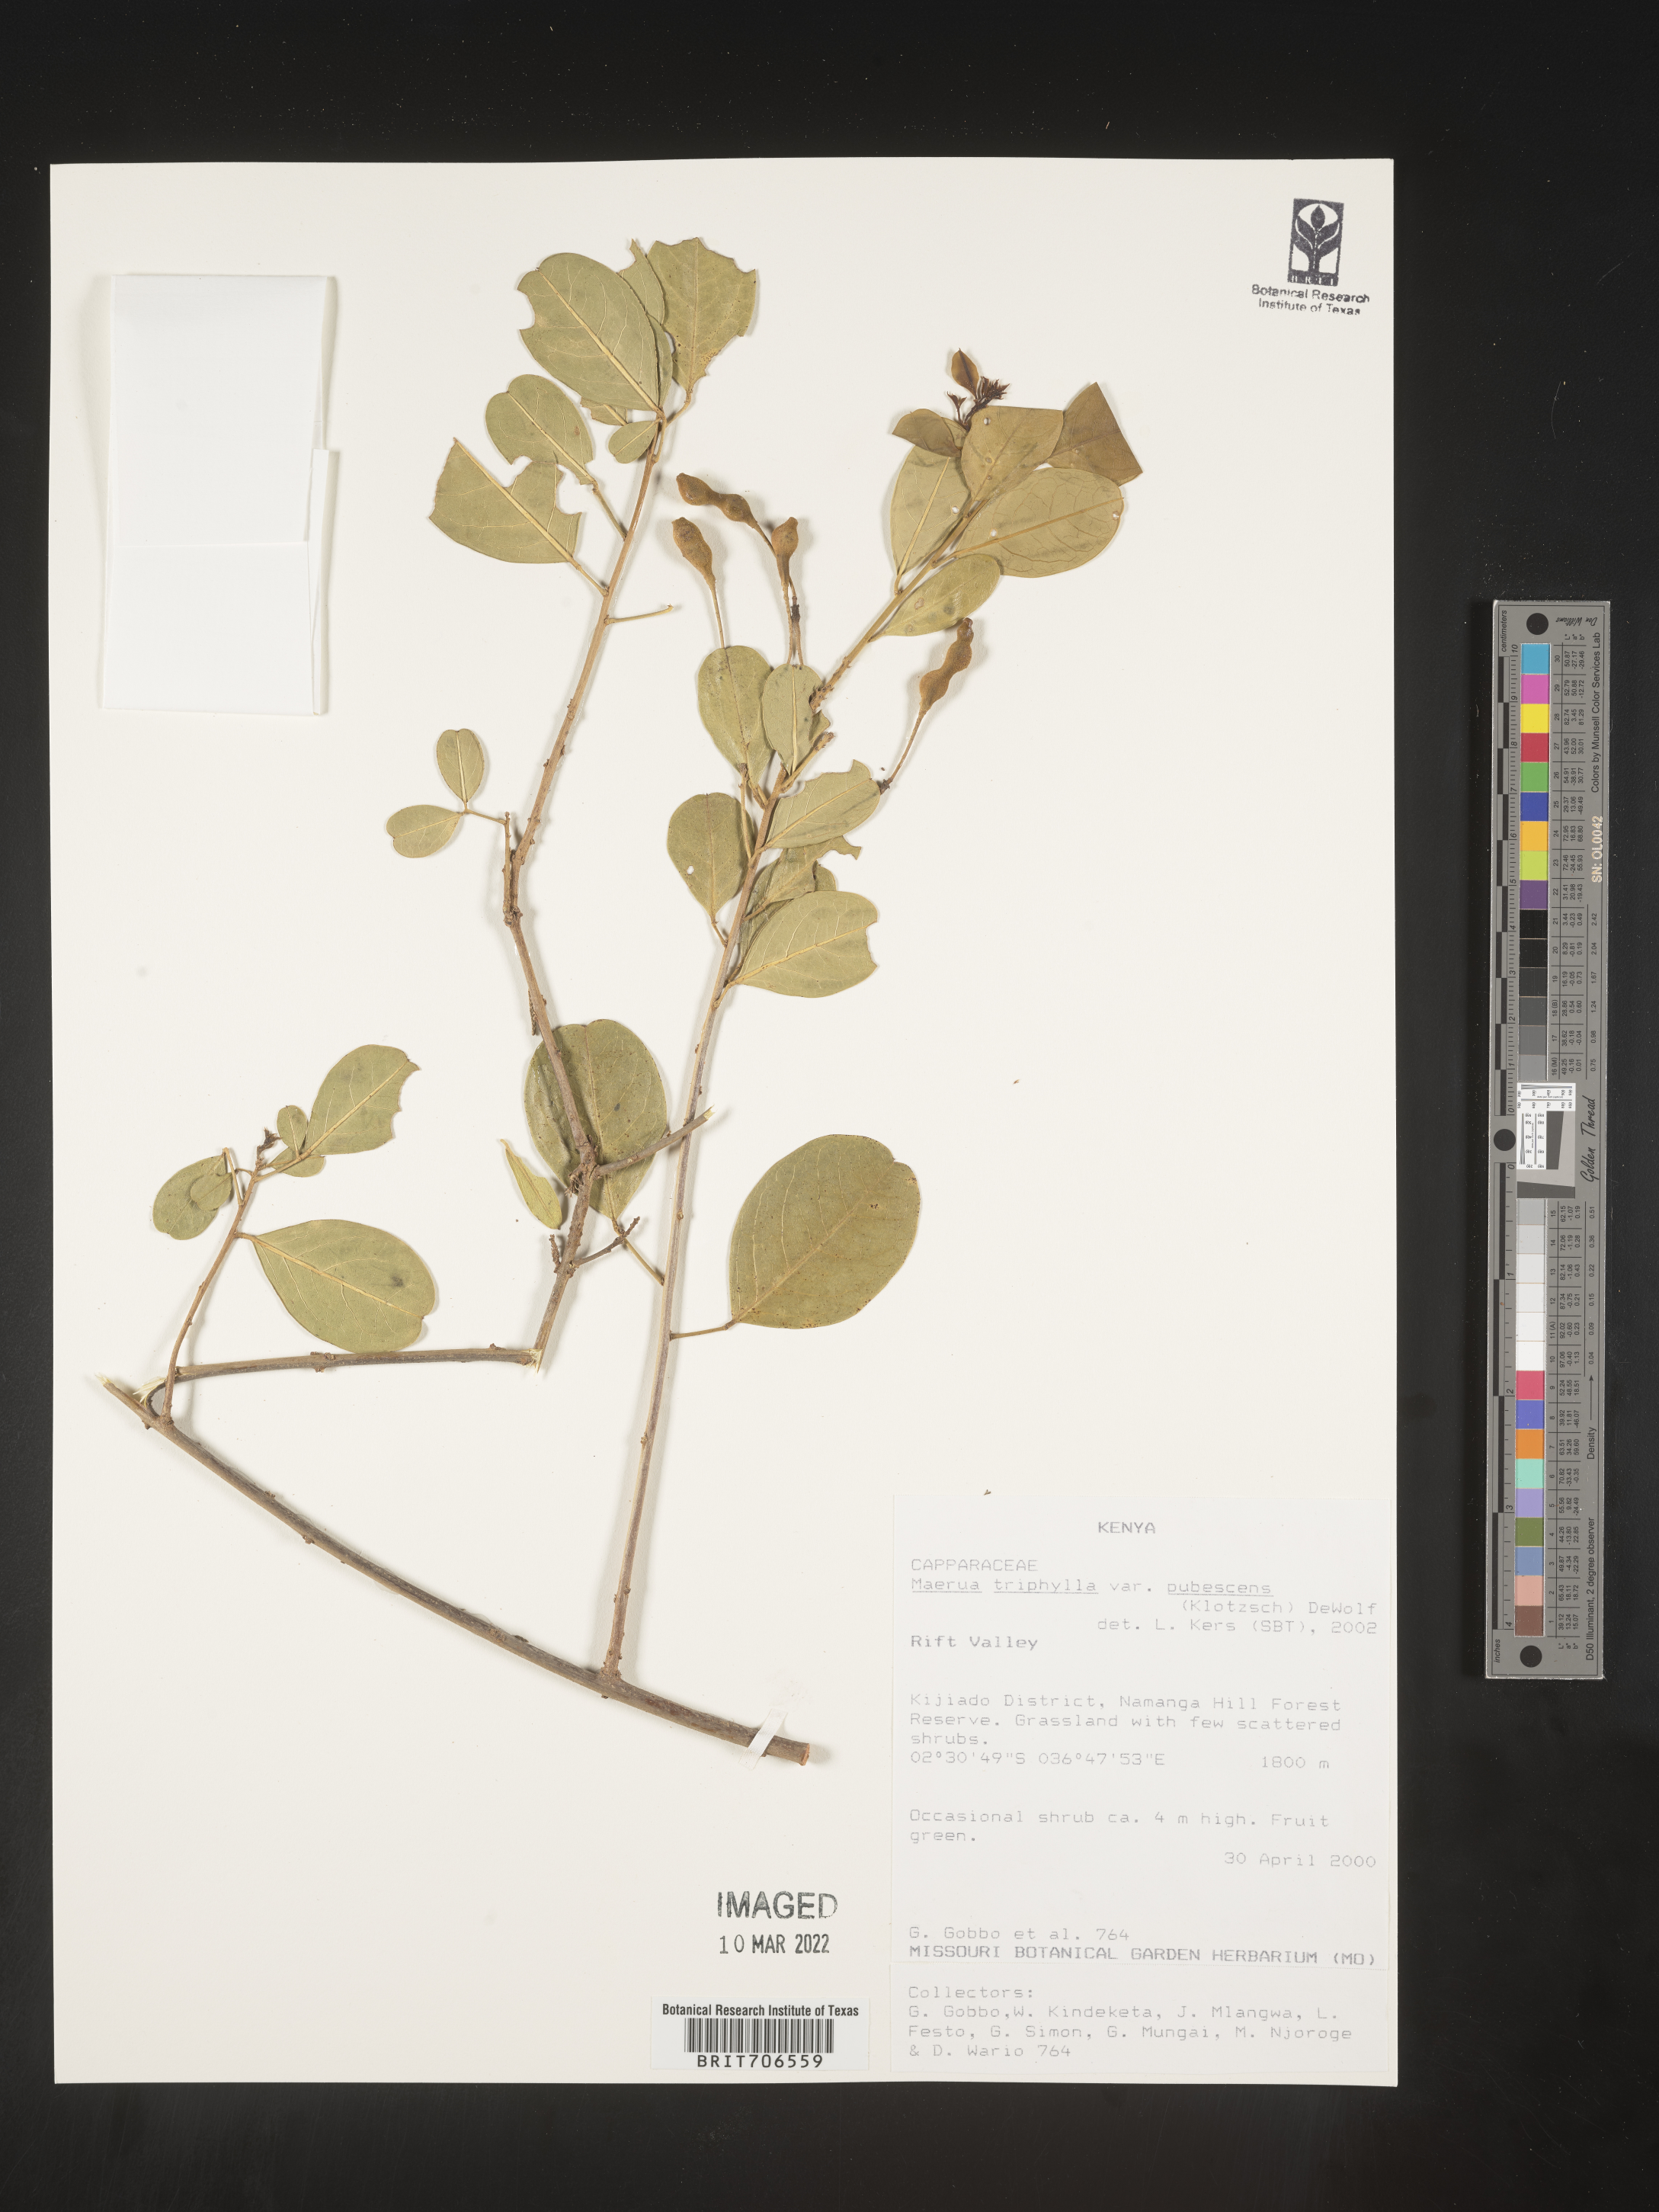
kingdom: Plantae
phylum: Tracheophyta
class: Magnoliopsida
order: Brassicales
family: Capparaceae
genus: Maerua
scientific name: Maerua
